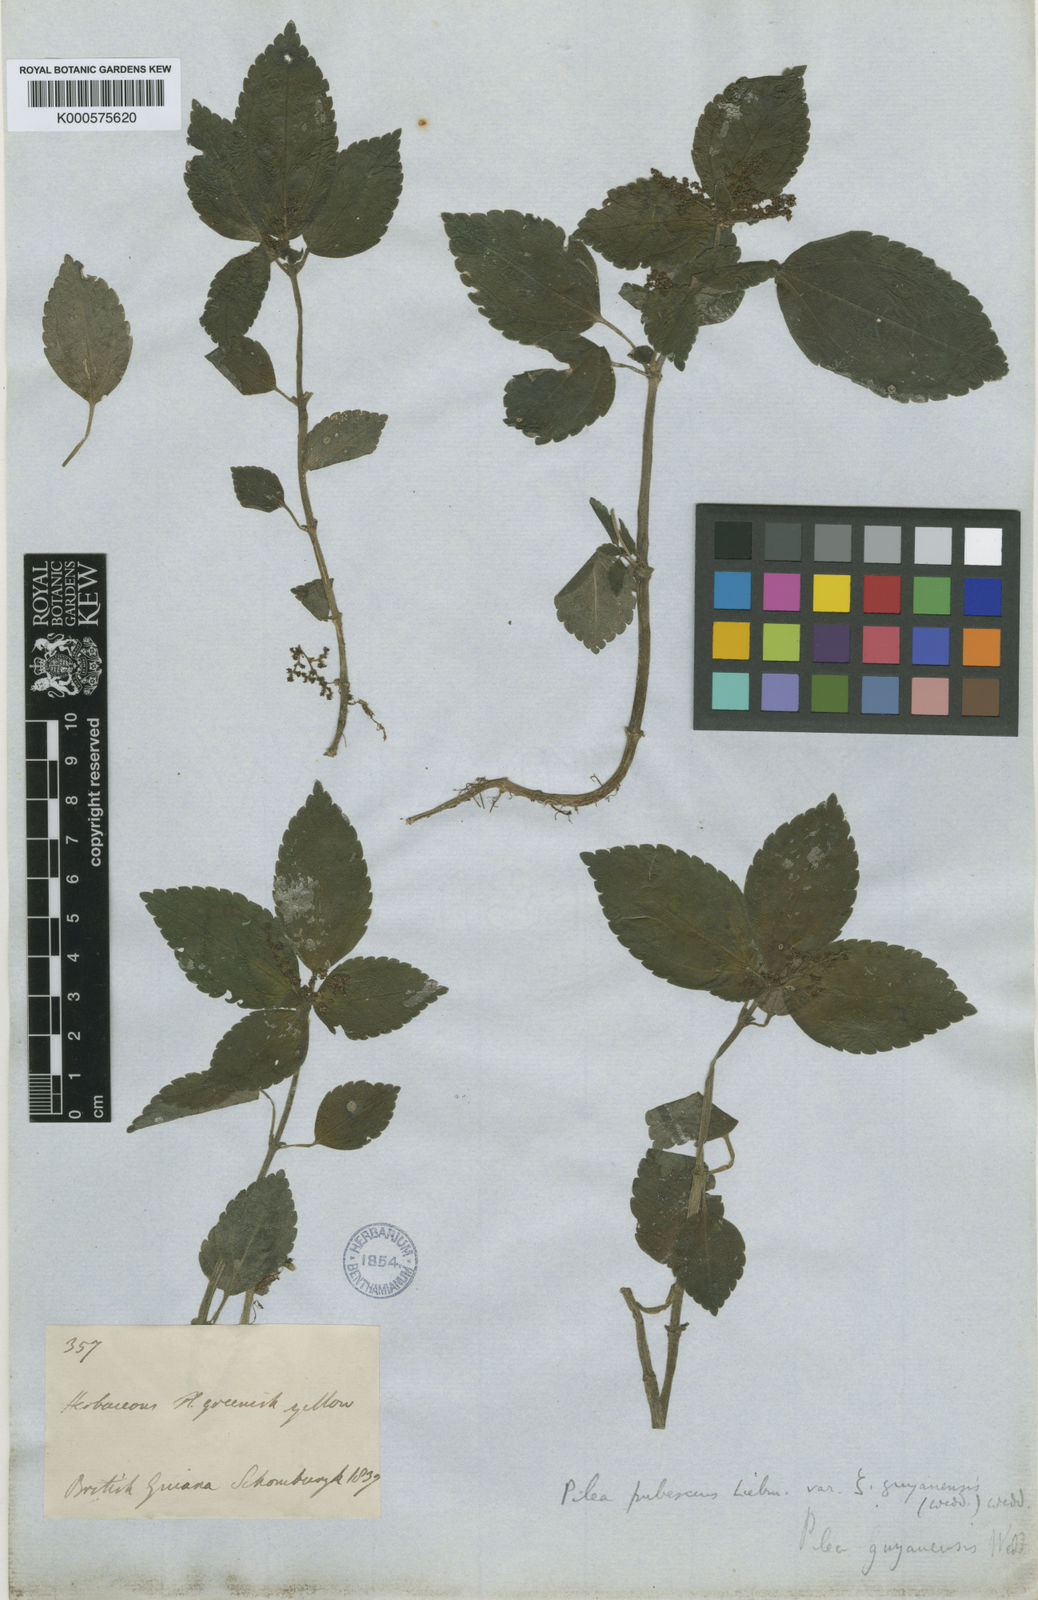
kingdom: Plantae
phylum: Tracheophyta
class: Magnoliopsida
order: Rosales
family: Urticaceae
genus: Pilea
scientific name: Pilea pubescens
